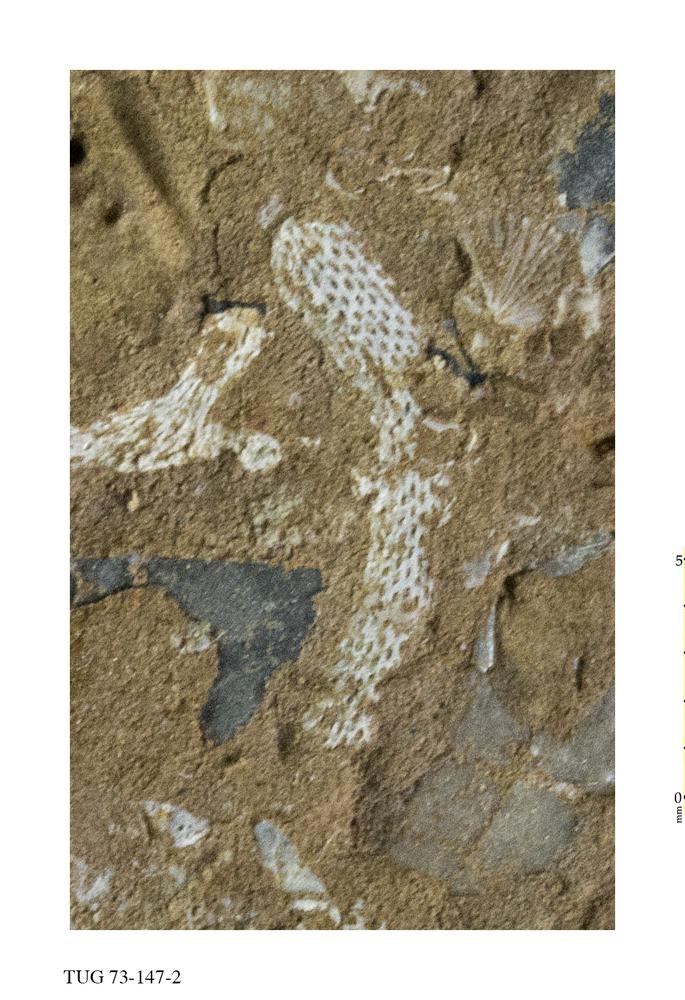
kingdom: Animalia
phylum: Bryozoa
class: Stenolaemata
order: Cryptostomida
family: Rhinidictyidae
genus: Trigonodictya
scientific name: Trigonodictya bifurcata
